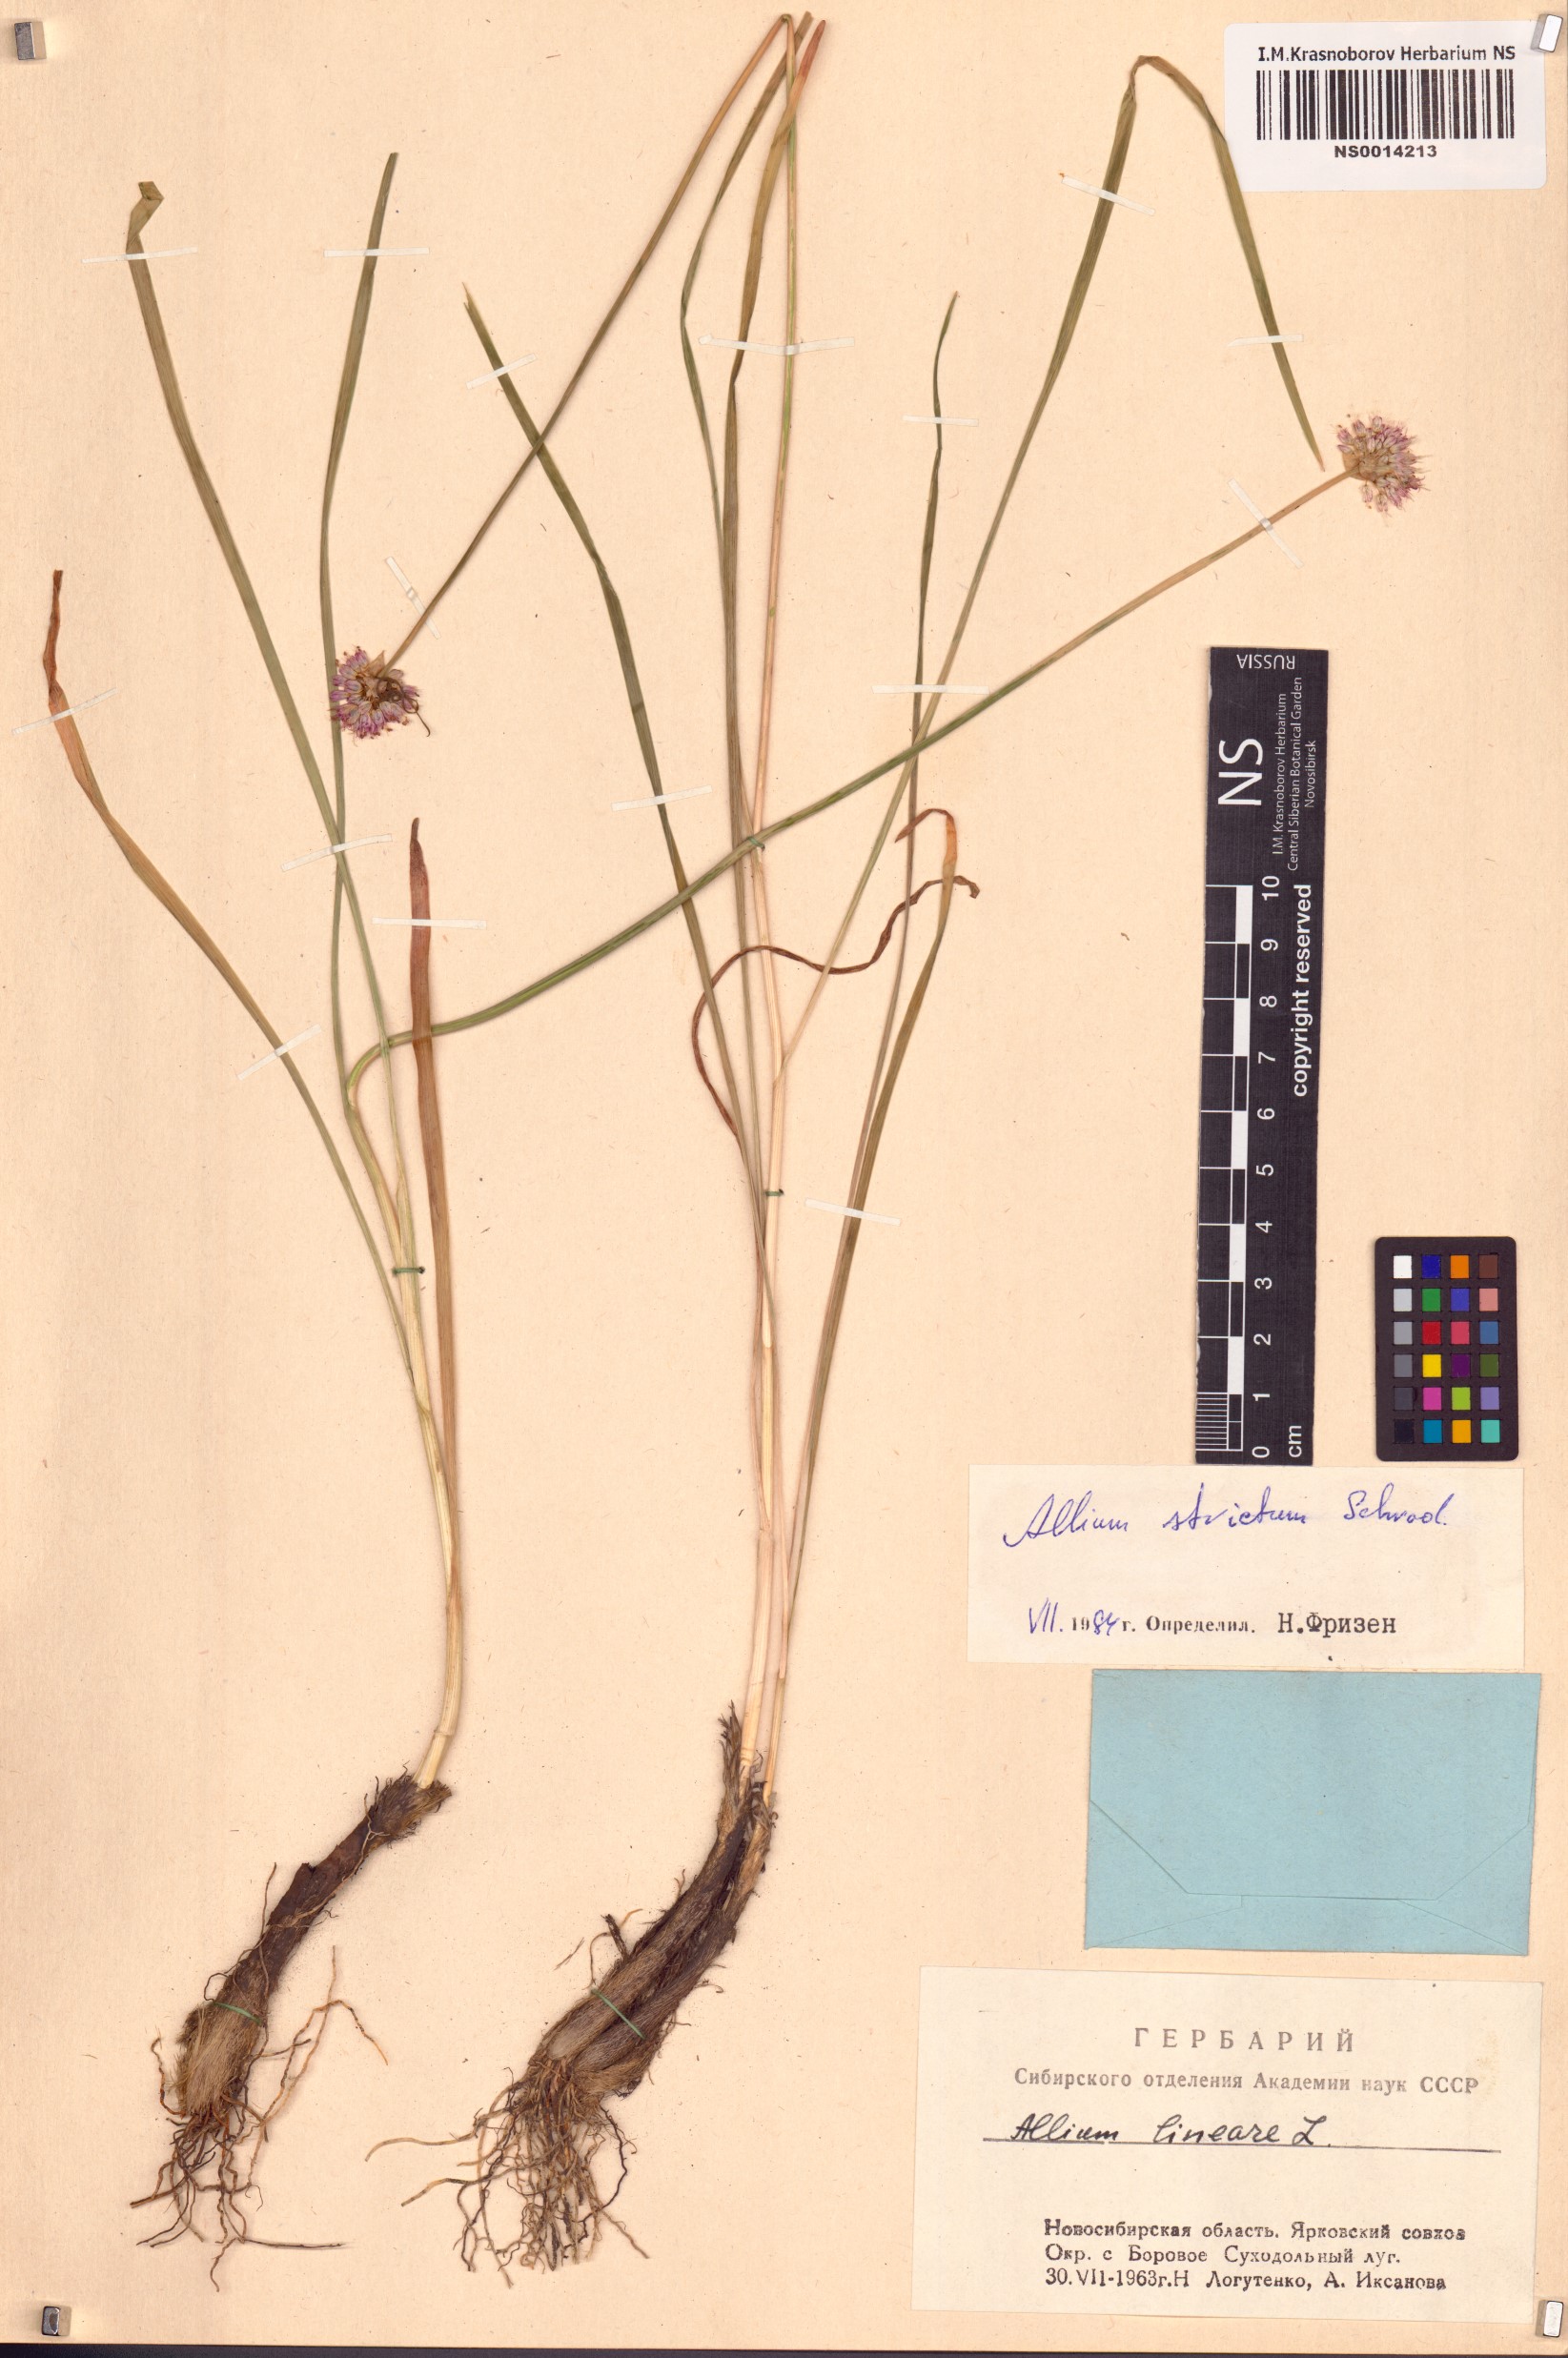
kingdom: Plantae
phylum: Tracheophyta
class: Liliopsida
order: Asparagales
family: Amaryllidaceae
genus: Allium
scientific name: Allium strictum
